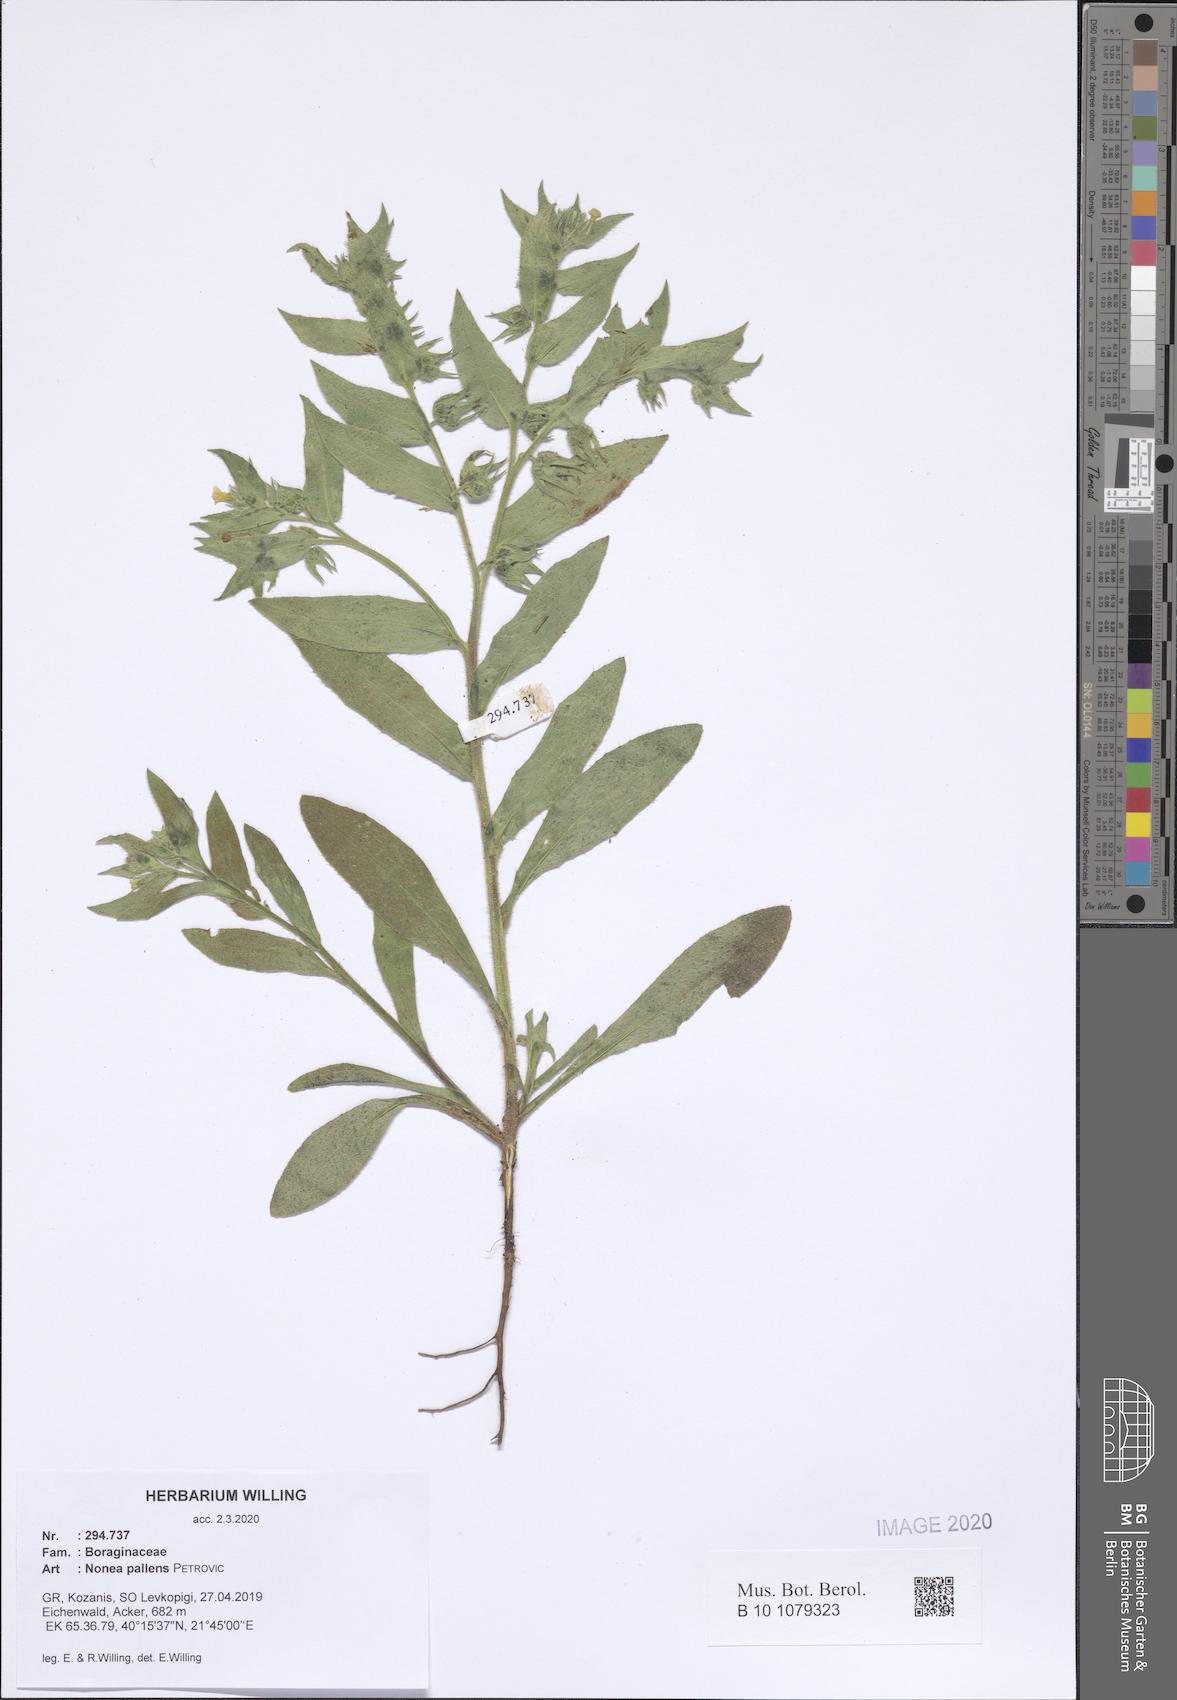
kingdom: Plantae
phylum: Tracheophyta
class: Magnoliopsida
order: Boraginales
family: Boraginaceae
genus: Nonea
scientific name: Nonea pallens
